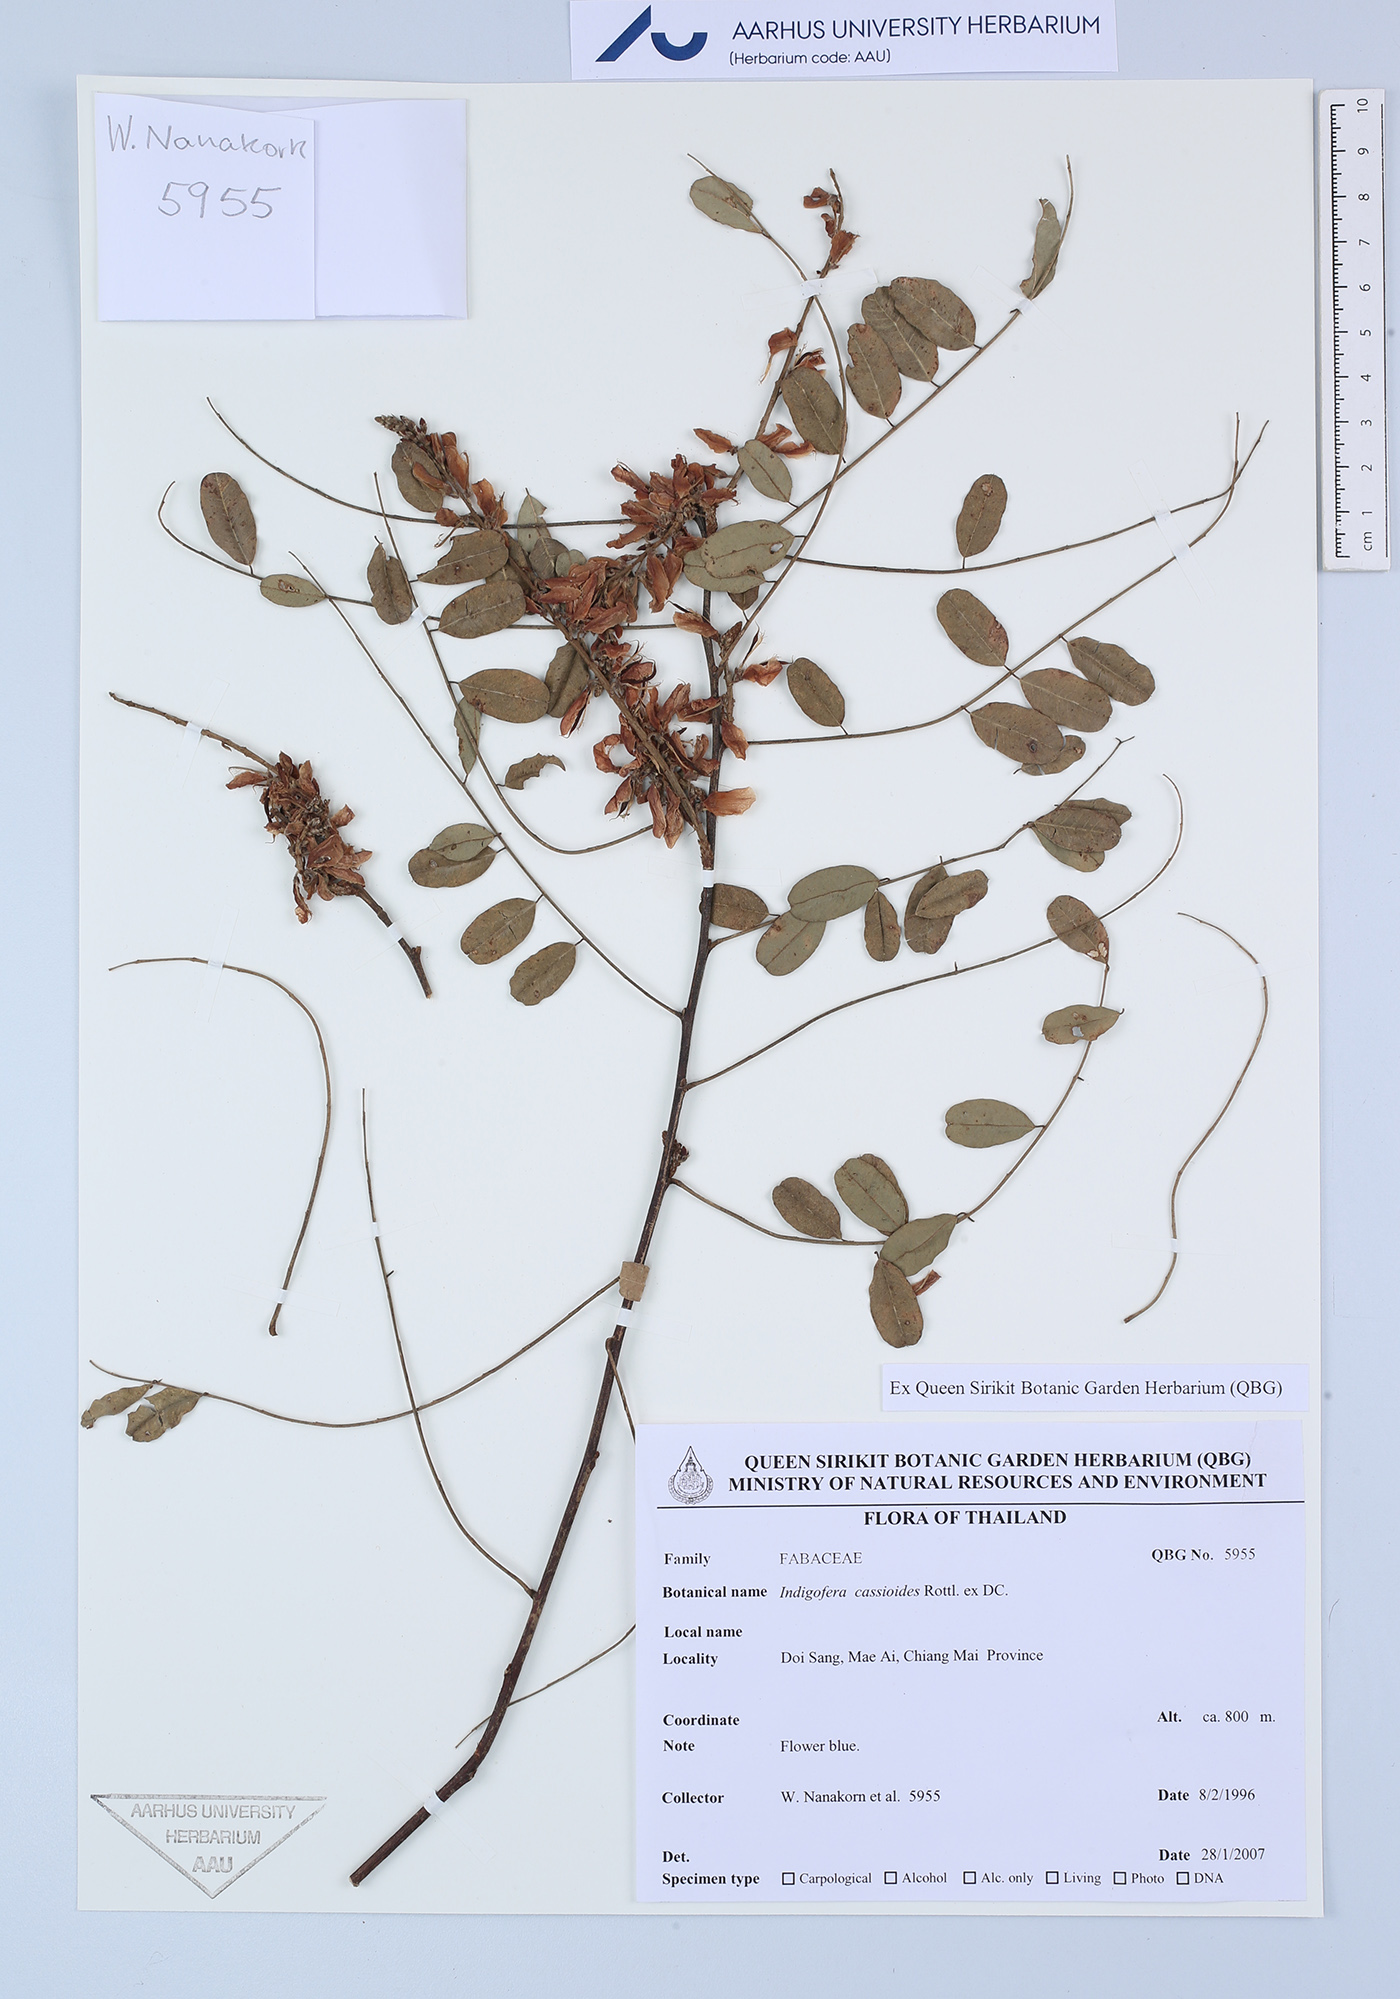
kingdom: Plantae
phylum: Tracheophyta
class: Magnoliopsida
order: Fabales
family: Fabaceae
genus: Indigofera
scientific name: Indigofera cassioides
